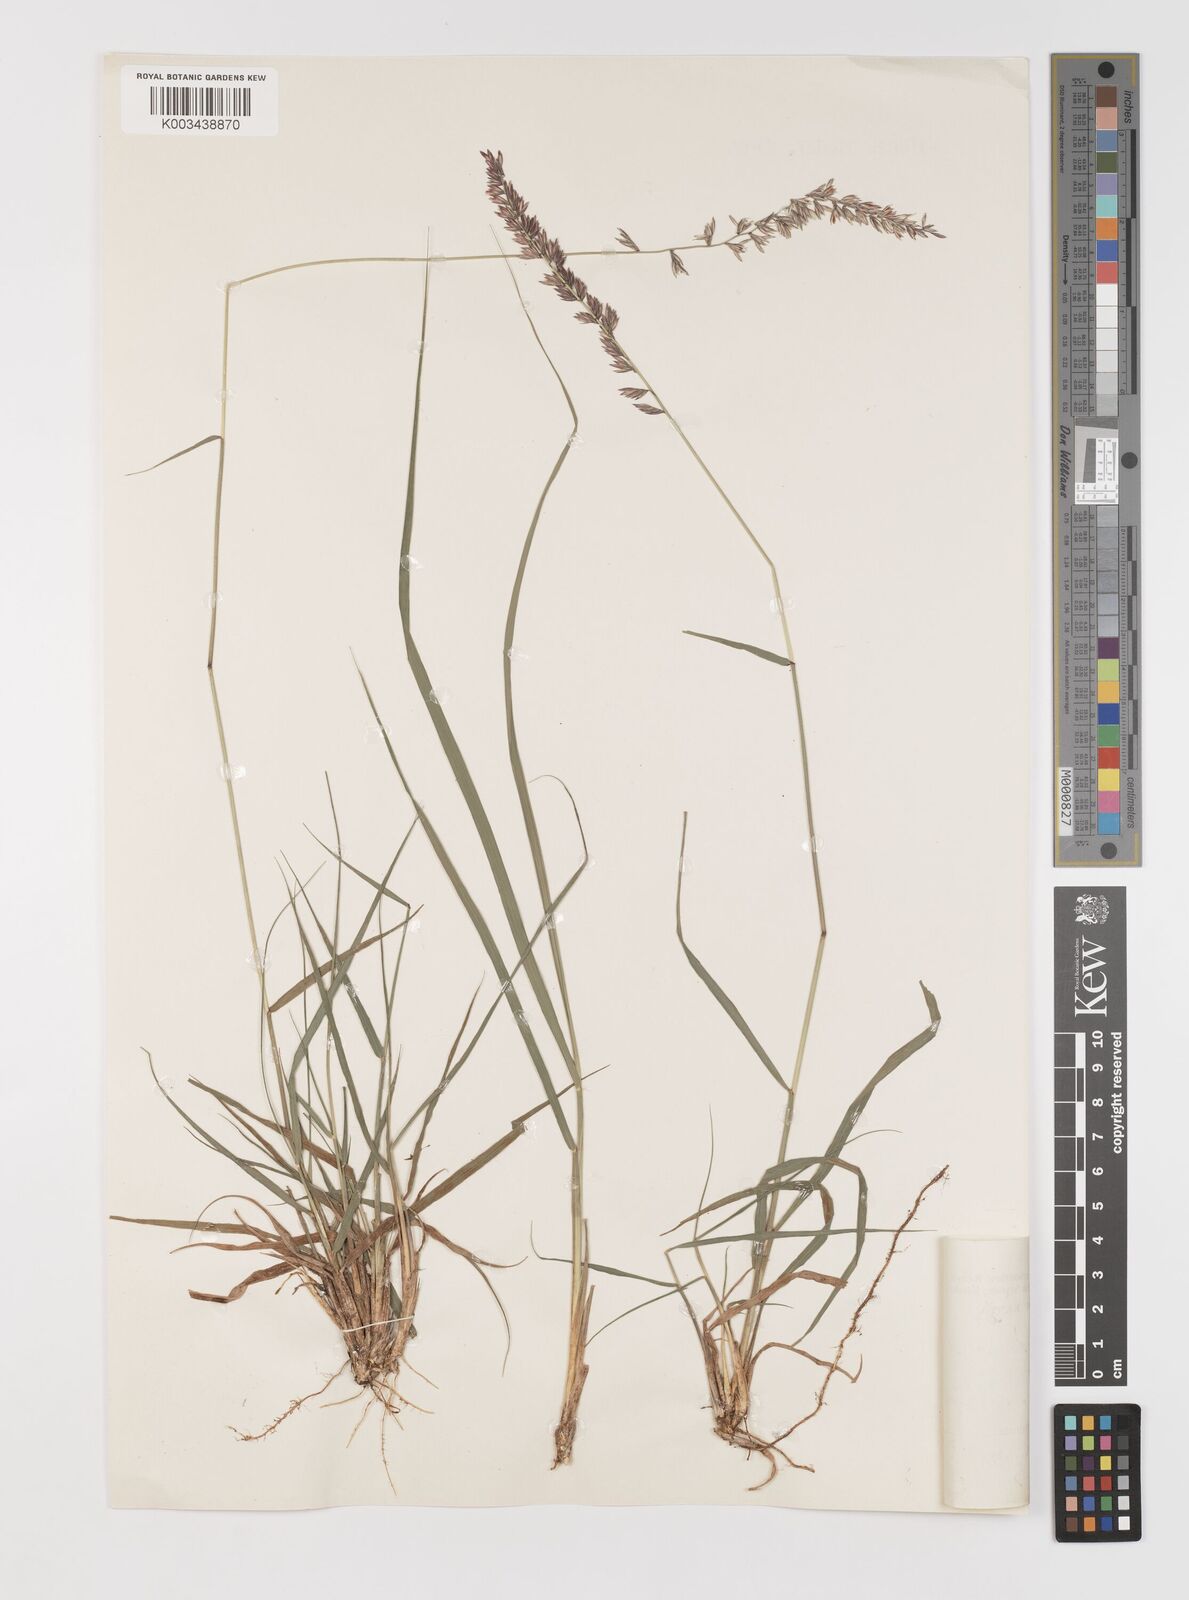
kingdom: Plantae
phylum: Tracheophyta
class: Liliopsida
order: Poales
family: Poaceae
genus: Bouteloua
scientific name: Bouteloua curtipendula
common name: Side-oats grama
